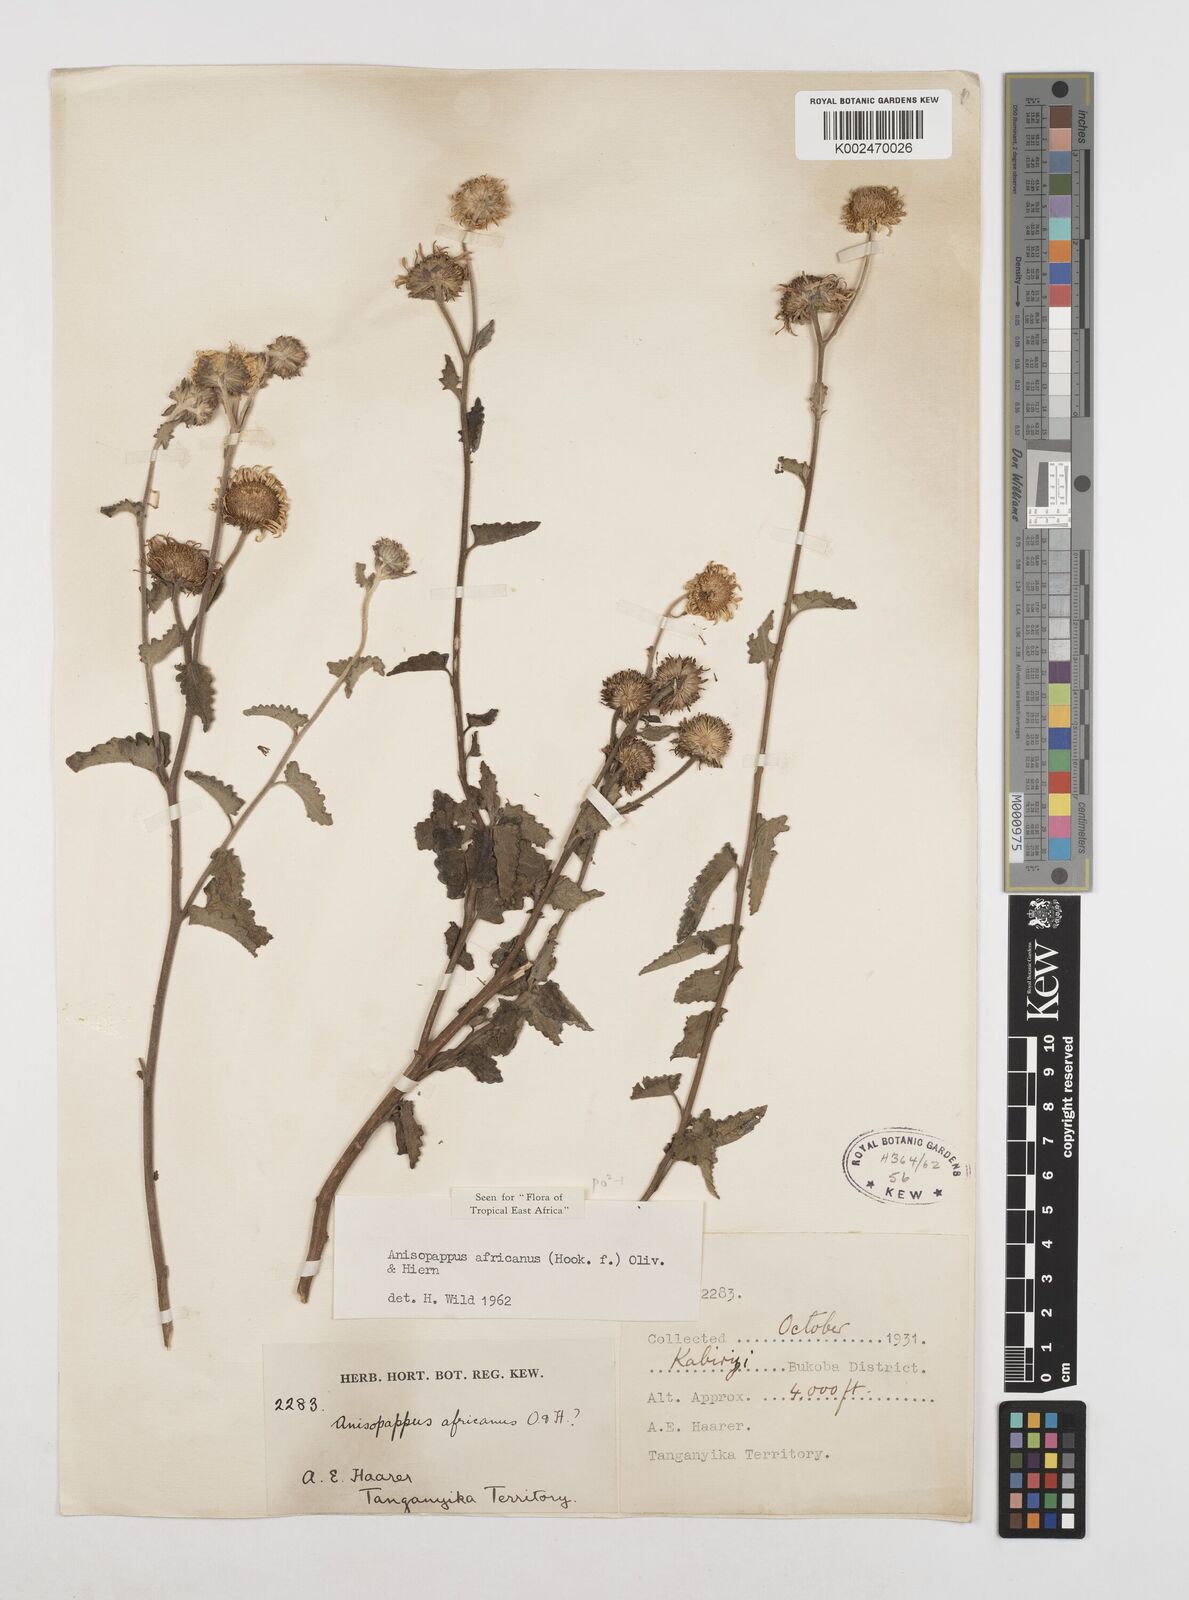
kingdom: Plantae
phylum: Tracheophyta
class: Magnoliopsida
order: Asterales
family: Asteraceae
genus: Anisopappus
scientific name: Anisopappus africanus
